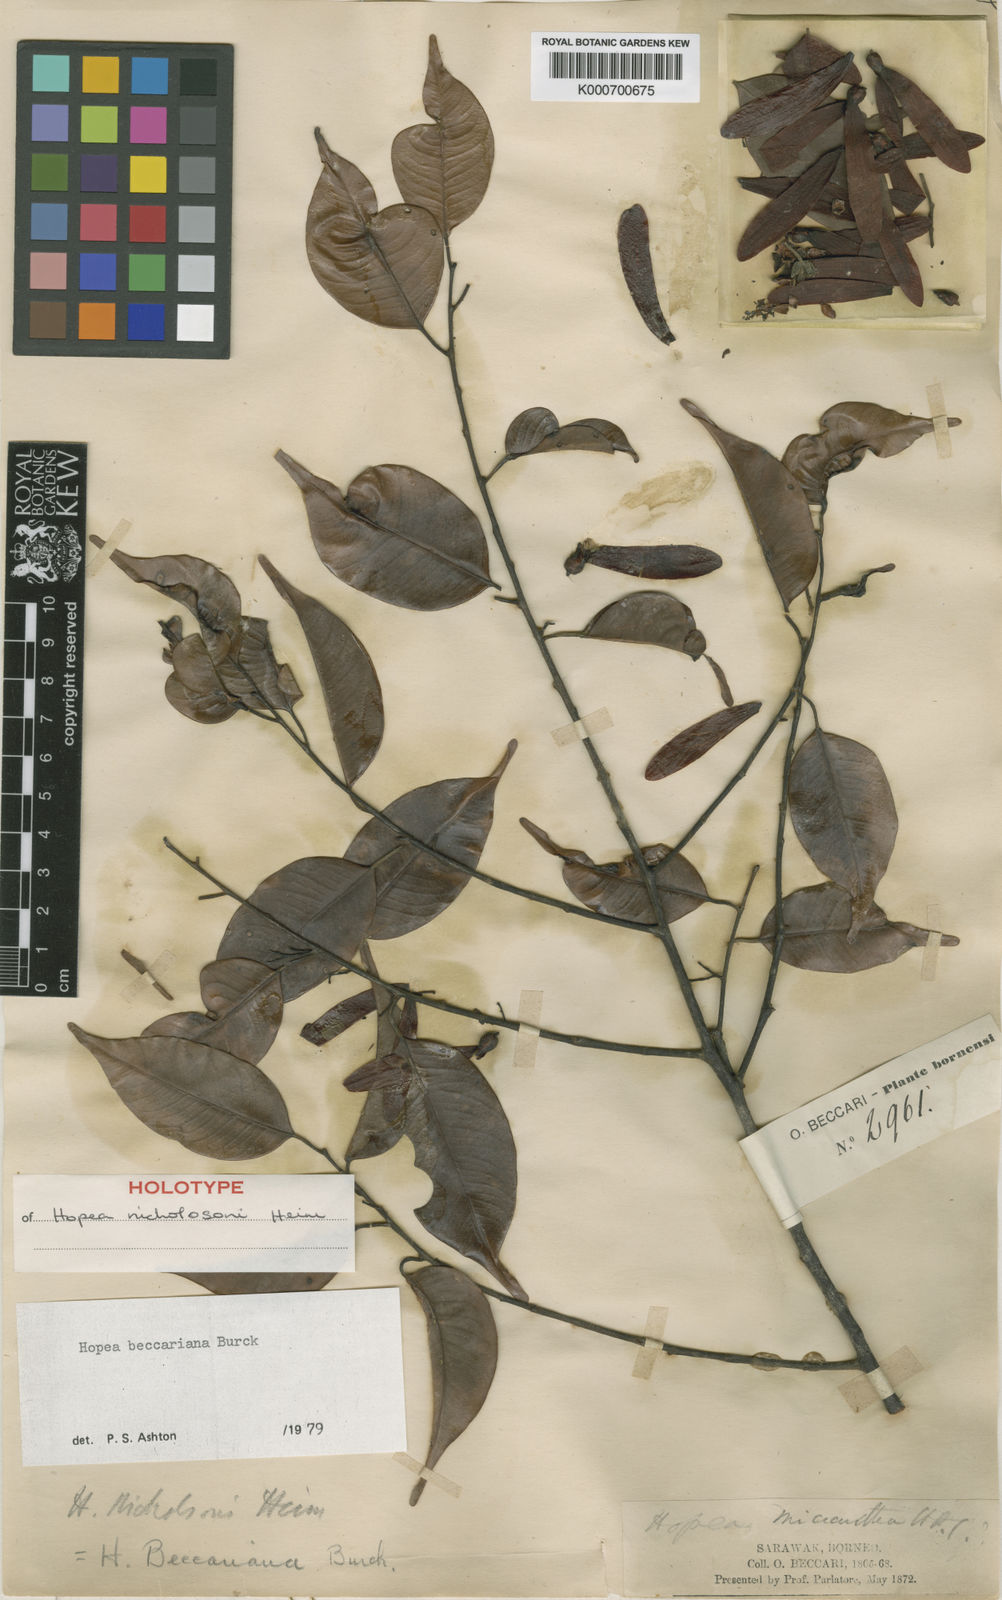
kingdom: Plantae
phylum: Tracheophyta
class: Magnoliopsida
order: Malvales
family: Dipterocarpaceae
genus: Hopea
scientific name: Hopea beccariana
